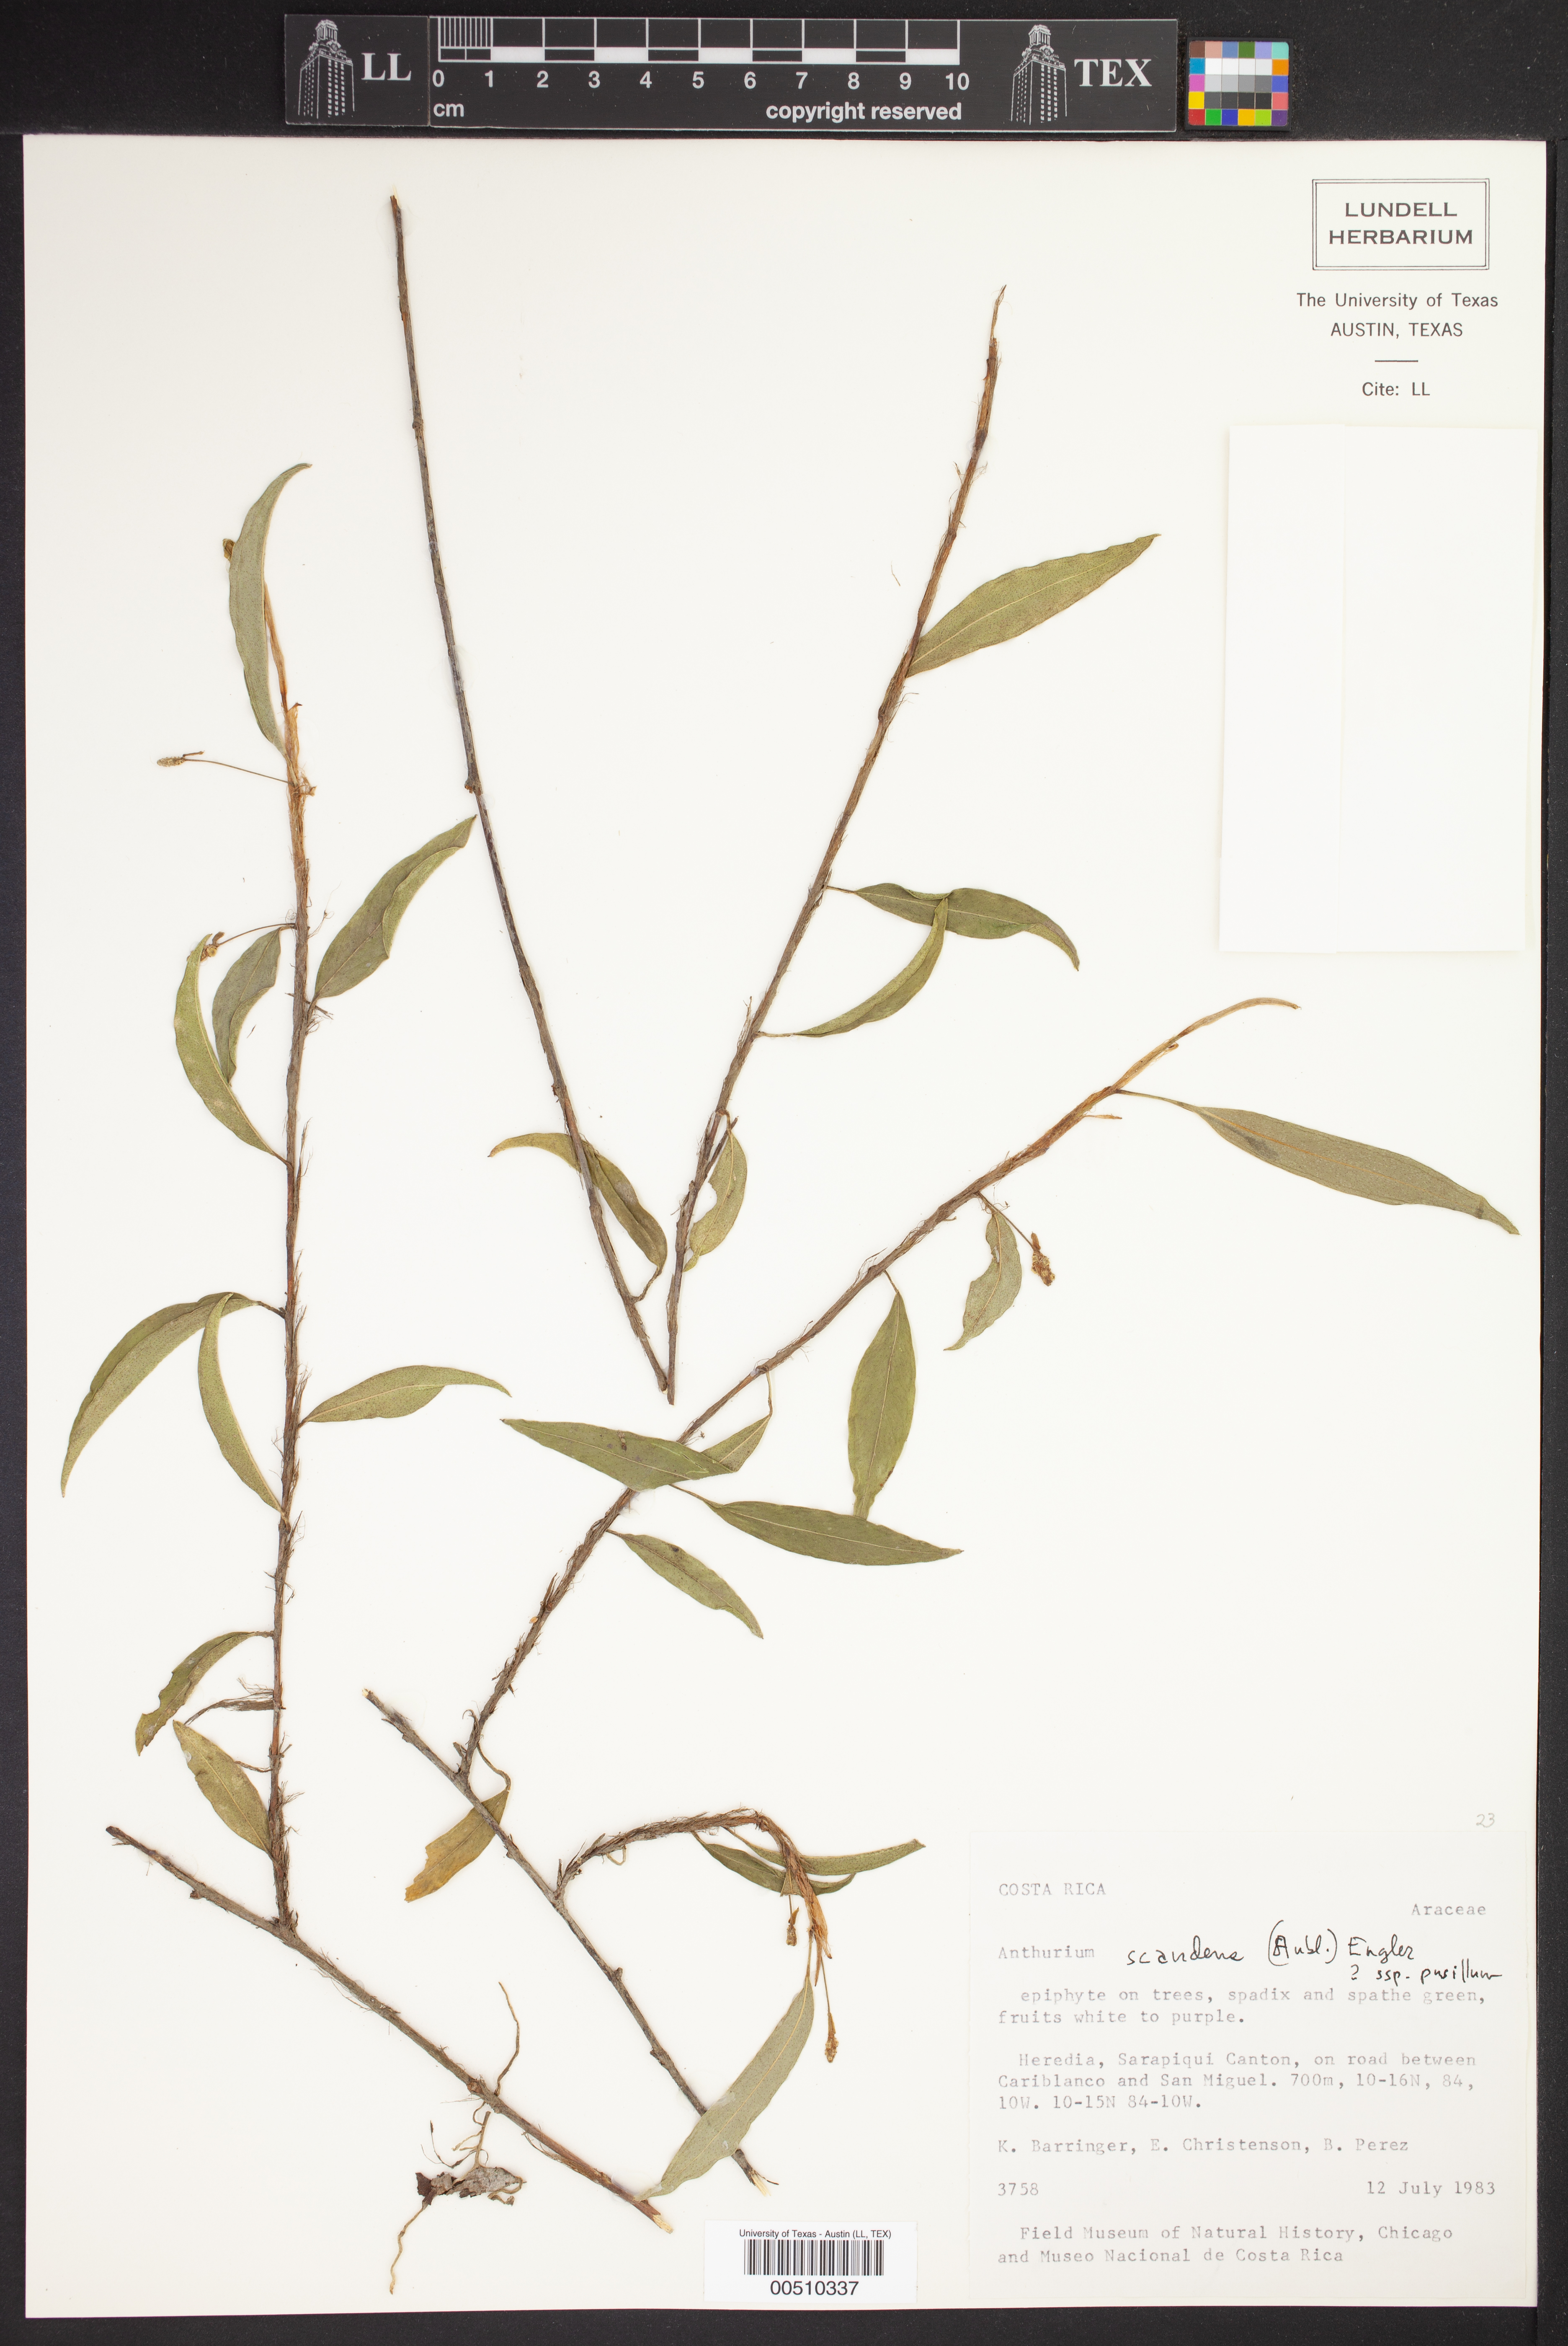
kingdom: Plantae
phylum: Tracheophyta
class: Liliopsida
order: Alismatales
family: Araceae
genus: Anthurium
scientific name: Anthurium scandens
